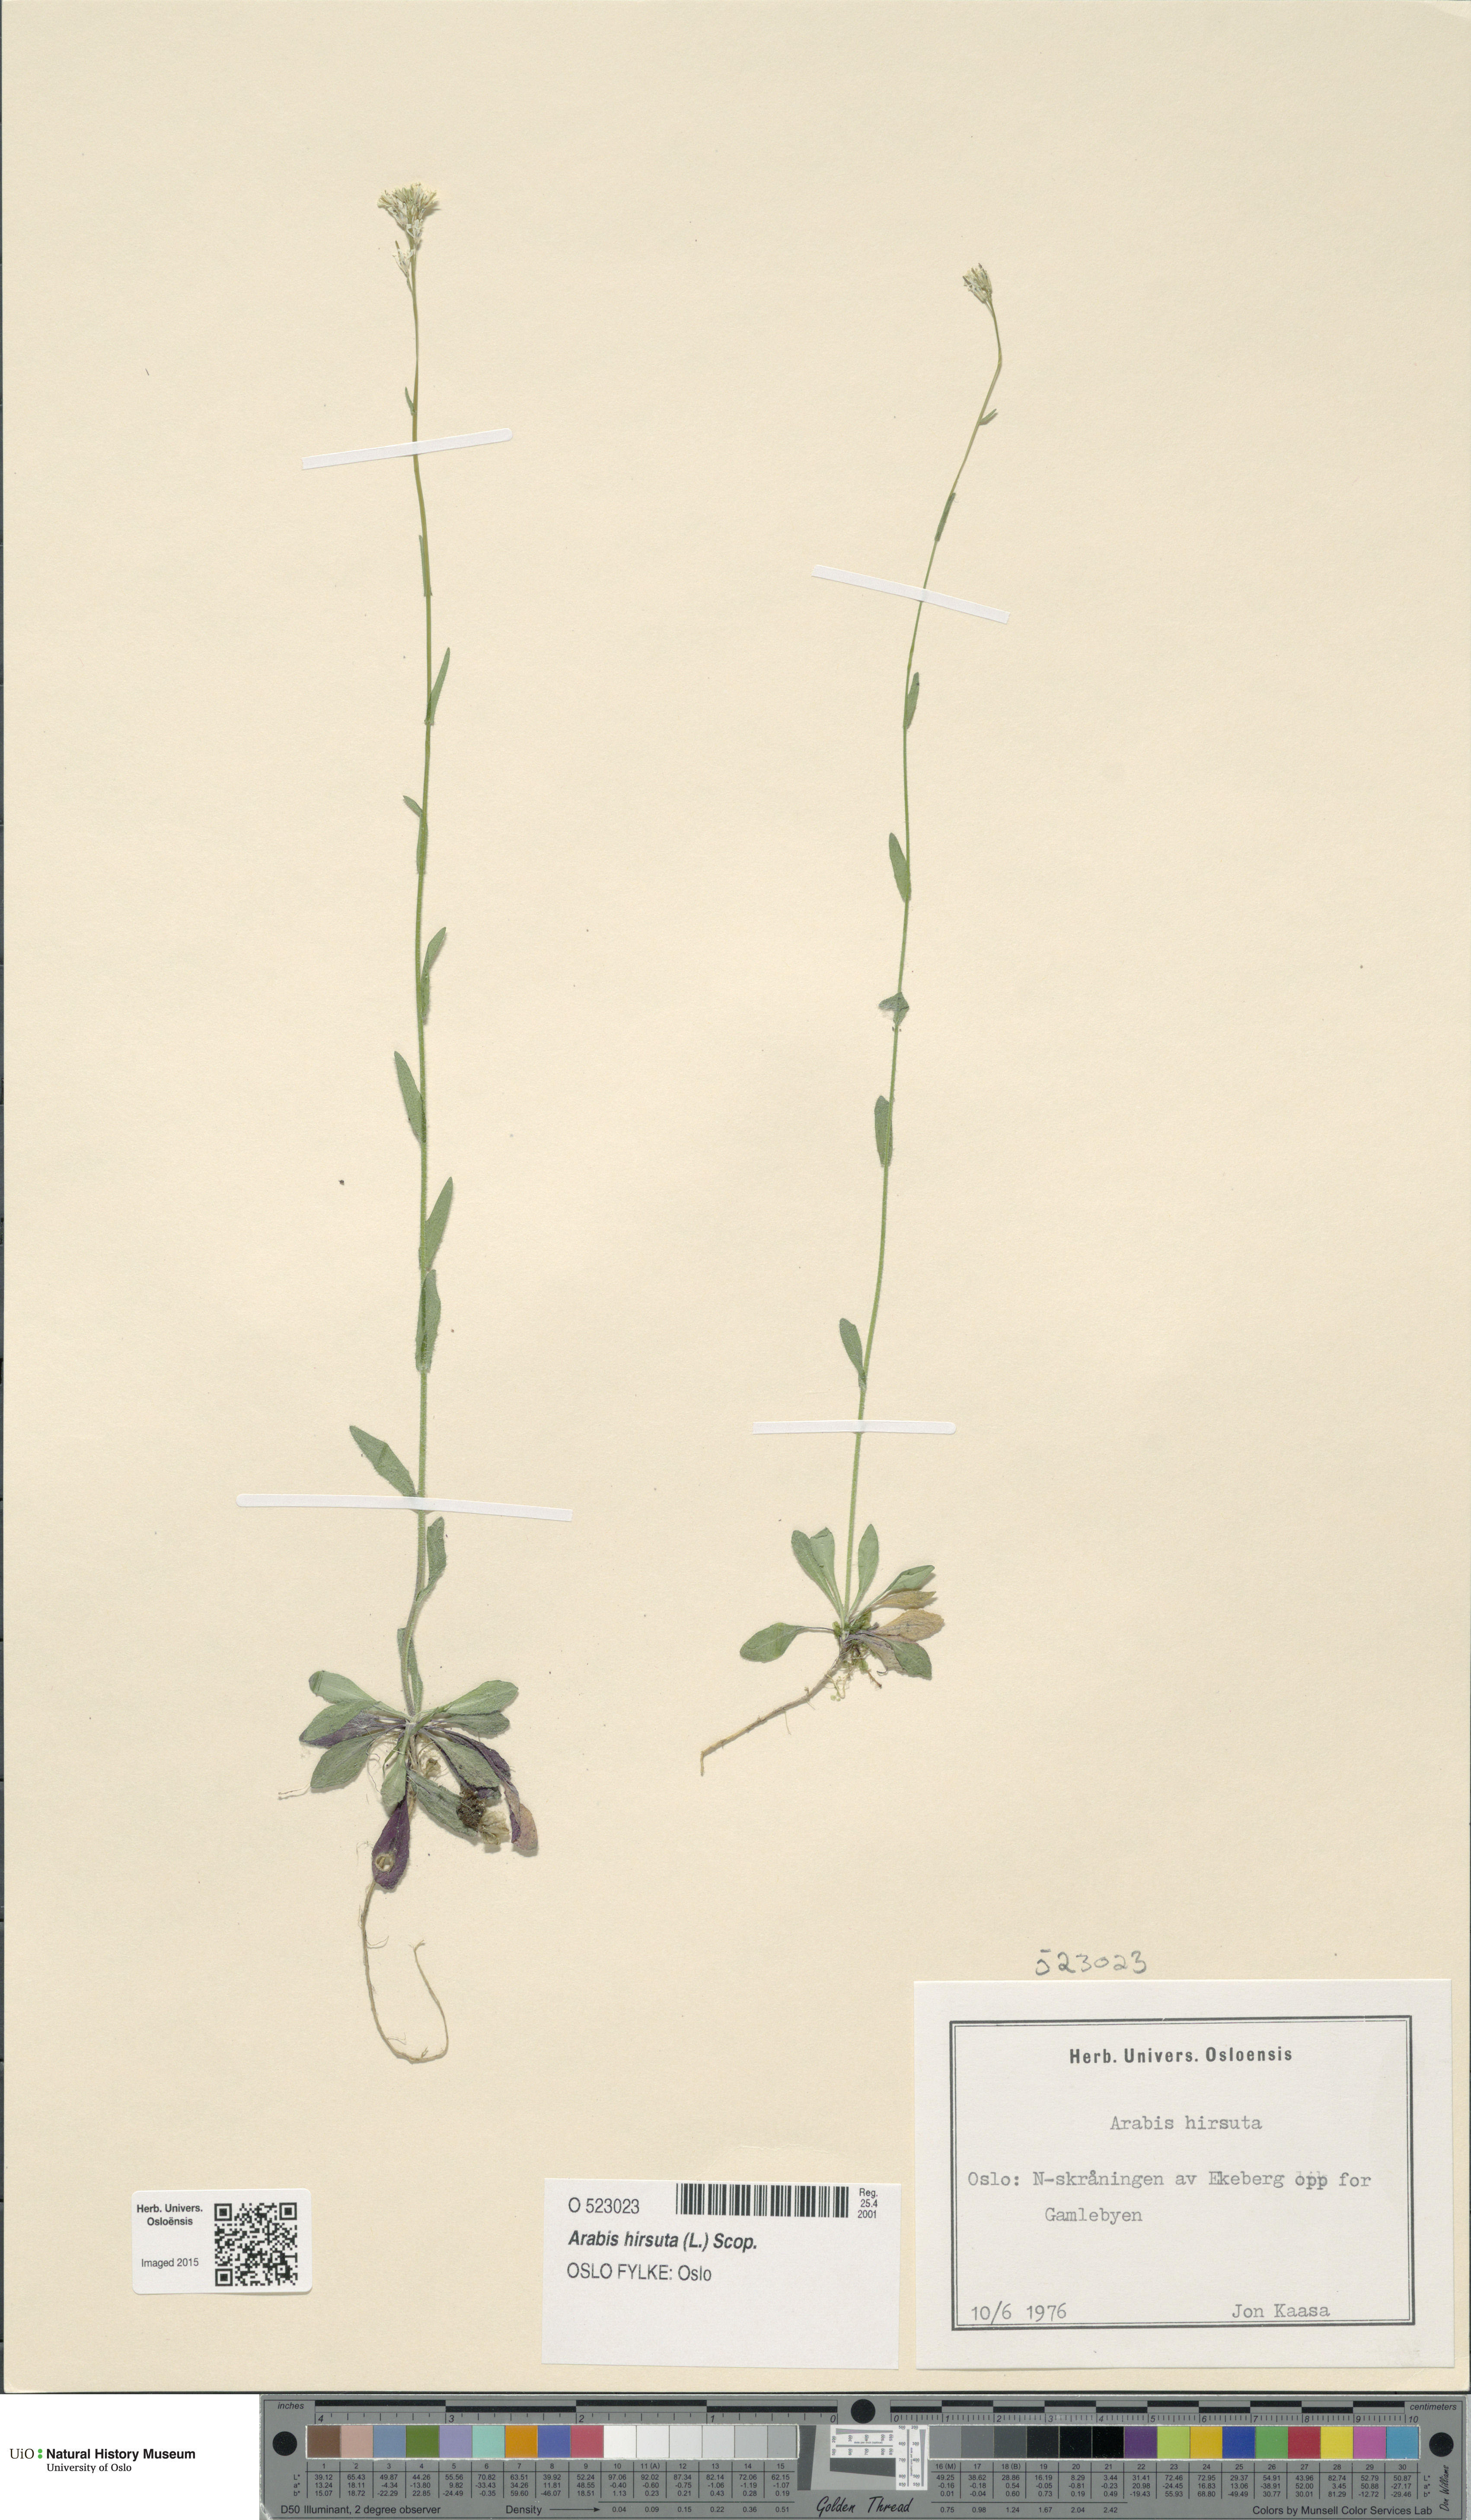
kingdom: Plantae
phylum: Tracheophyta
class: Magnoliopsida
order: Brassicales
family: Brassicaceae
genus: Arabis
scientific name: Arabis hirsuta
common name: Hairy rock-cress
